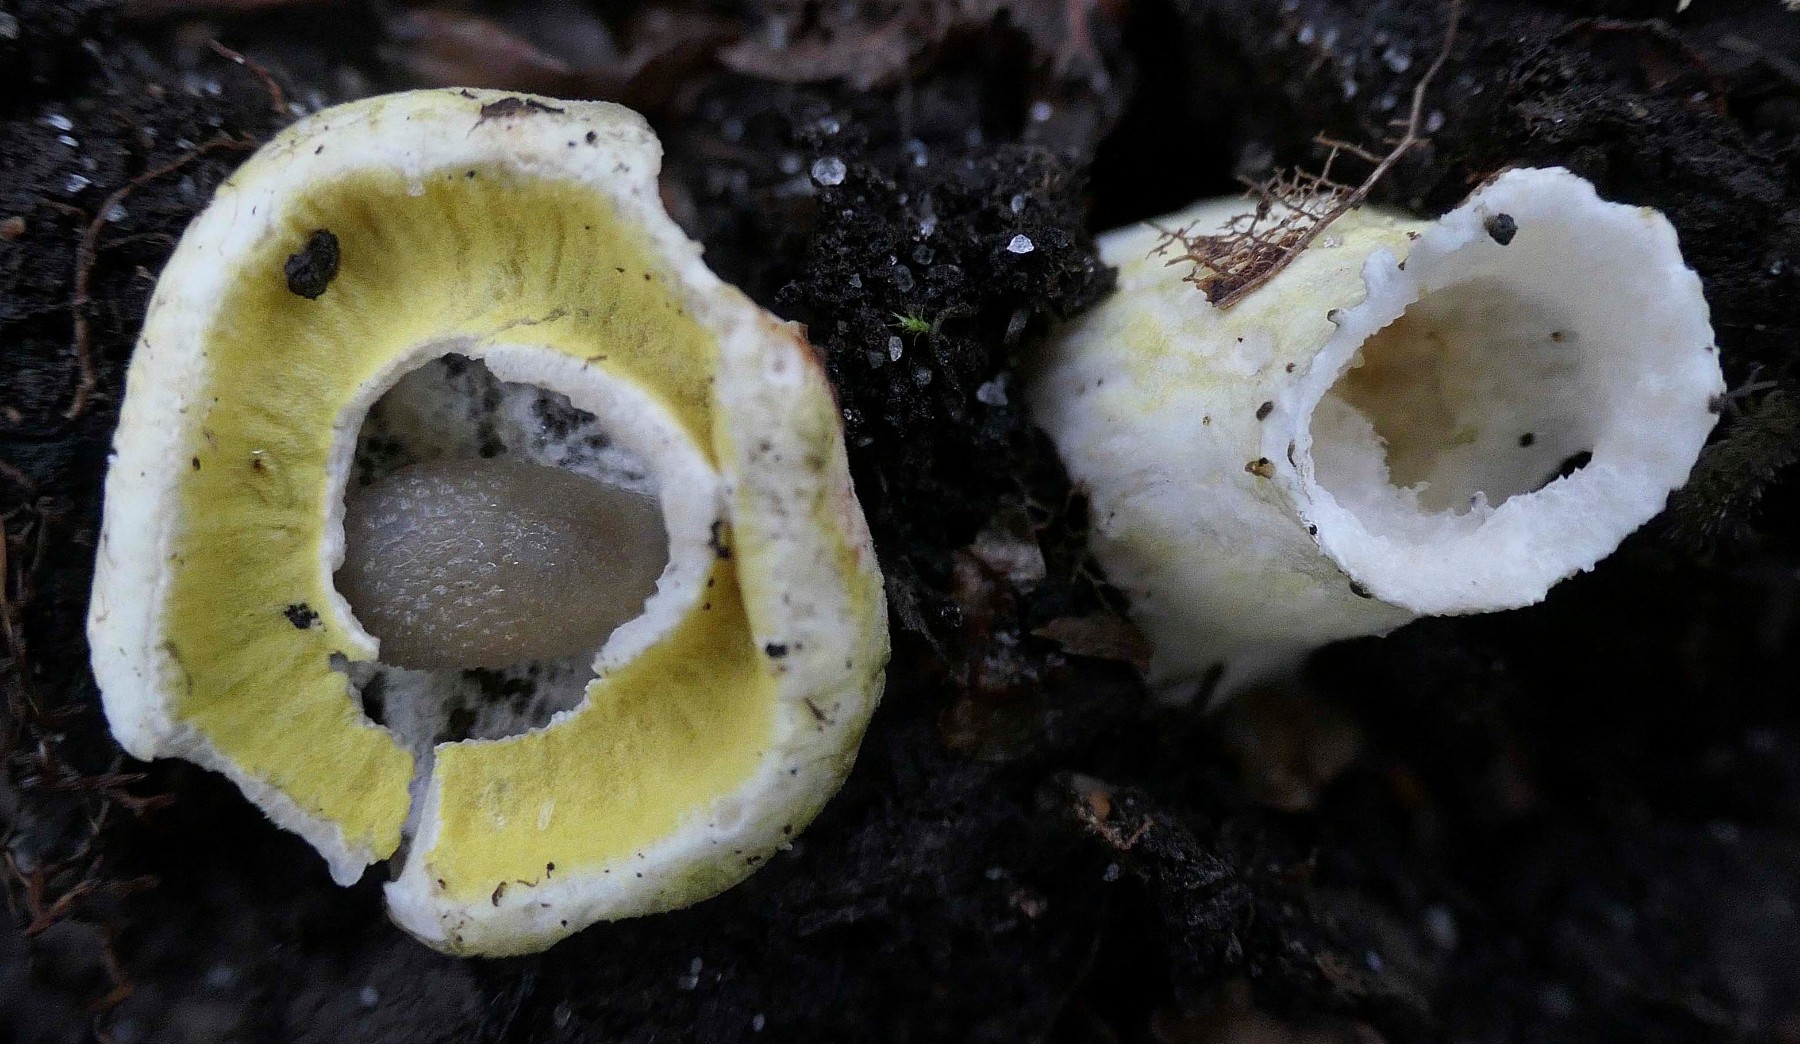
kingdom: Fungi
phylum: Ascomycota
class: Sordariomycetes
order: Hypocreales
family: Hypocreaceae
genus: Hypomyces
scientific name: Hypomyces luteovirens
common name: gulgrøn snylteskorpe
